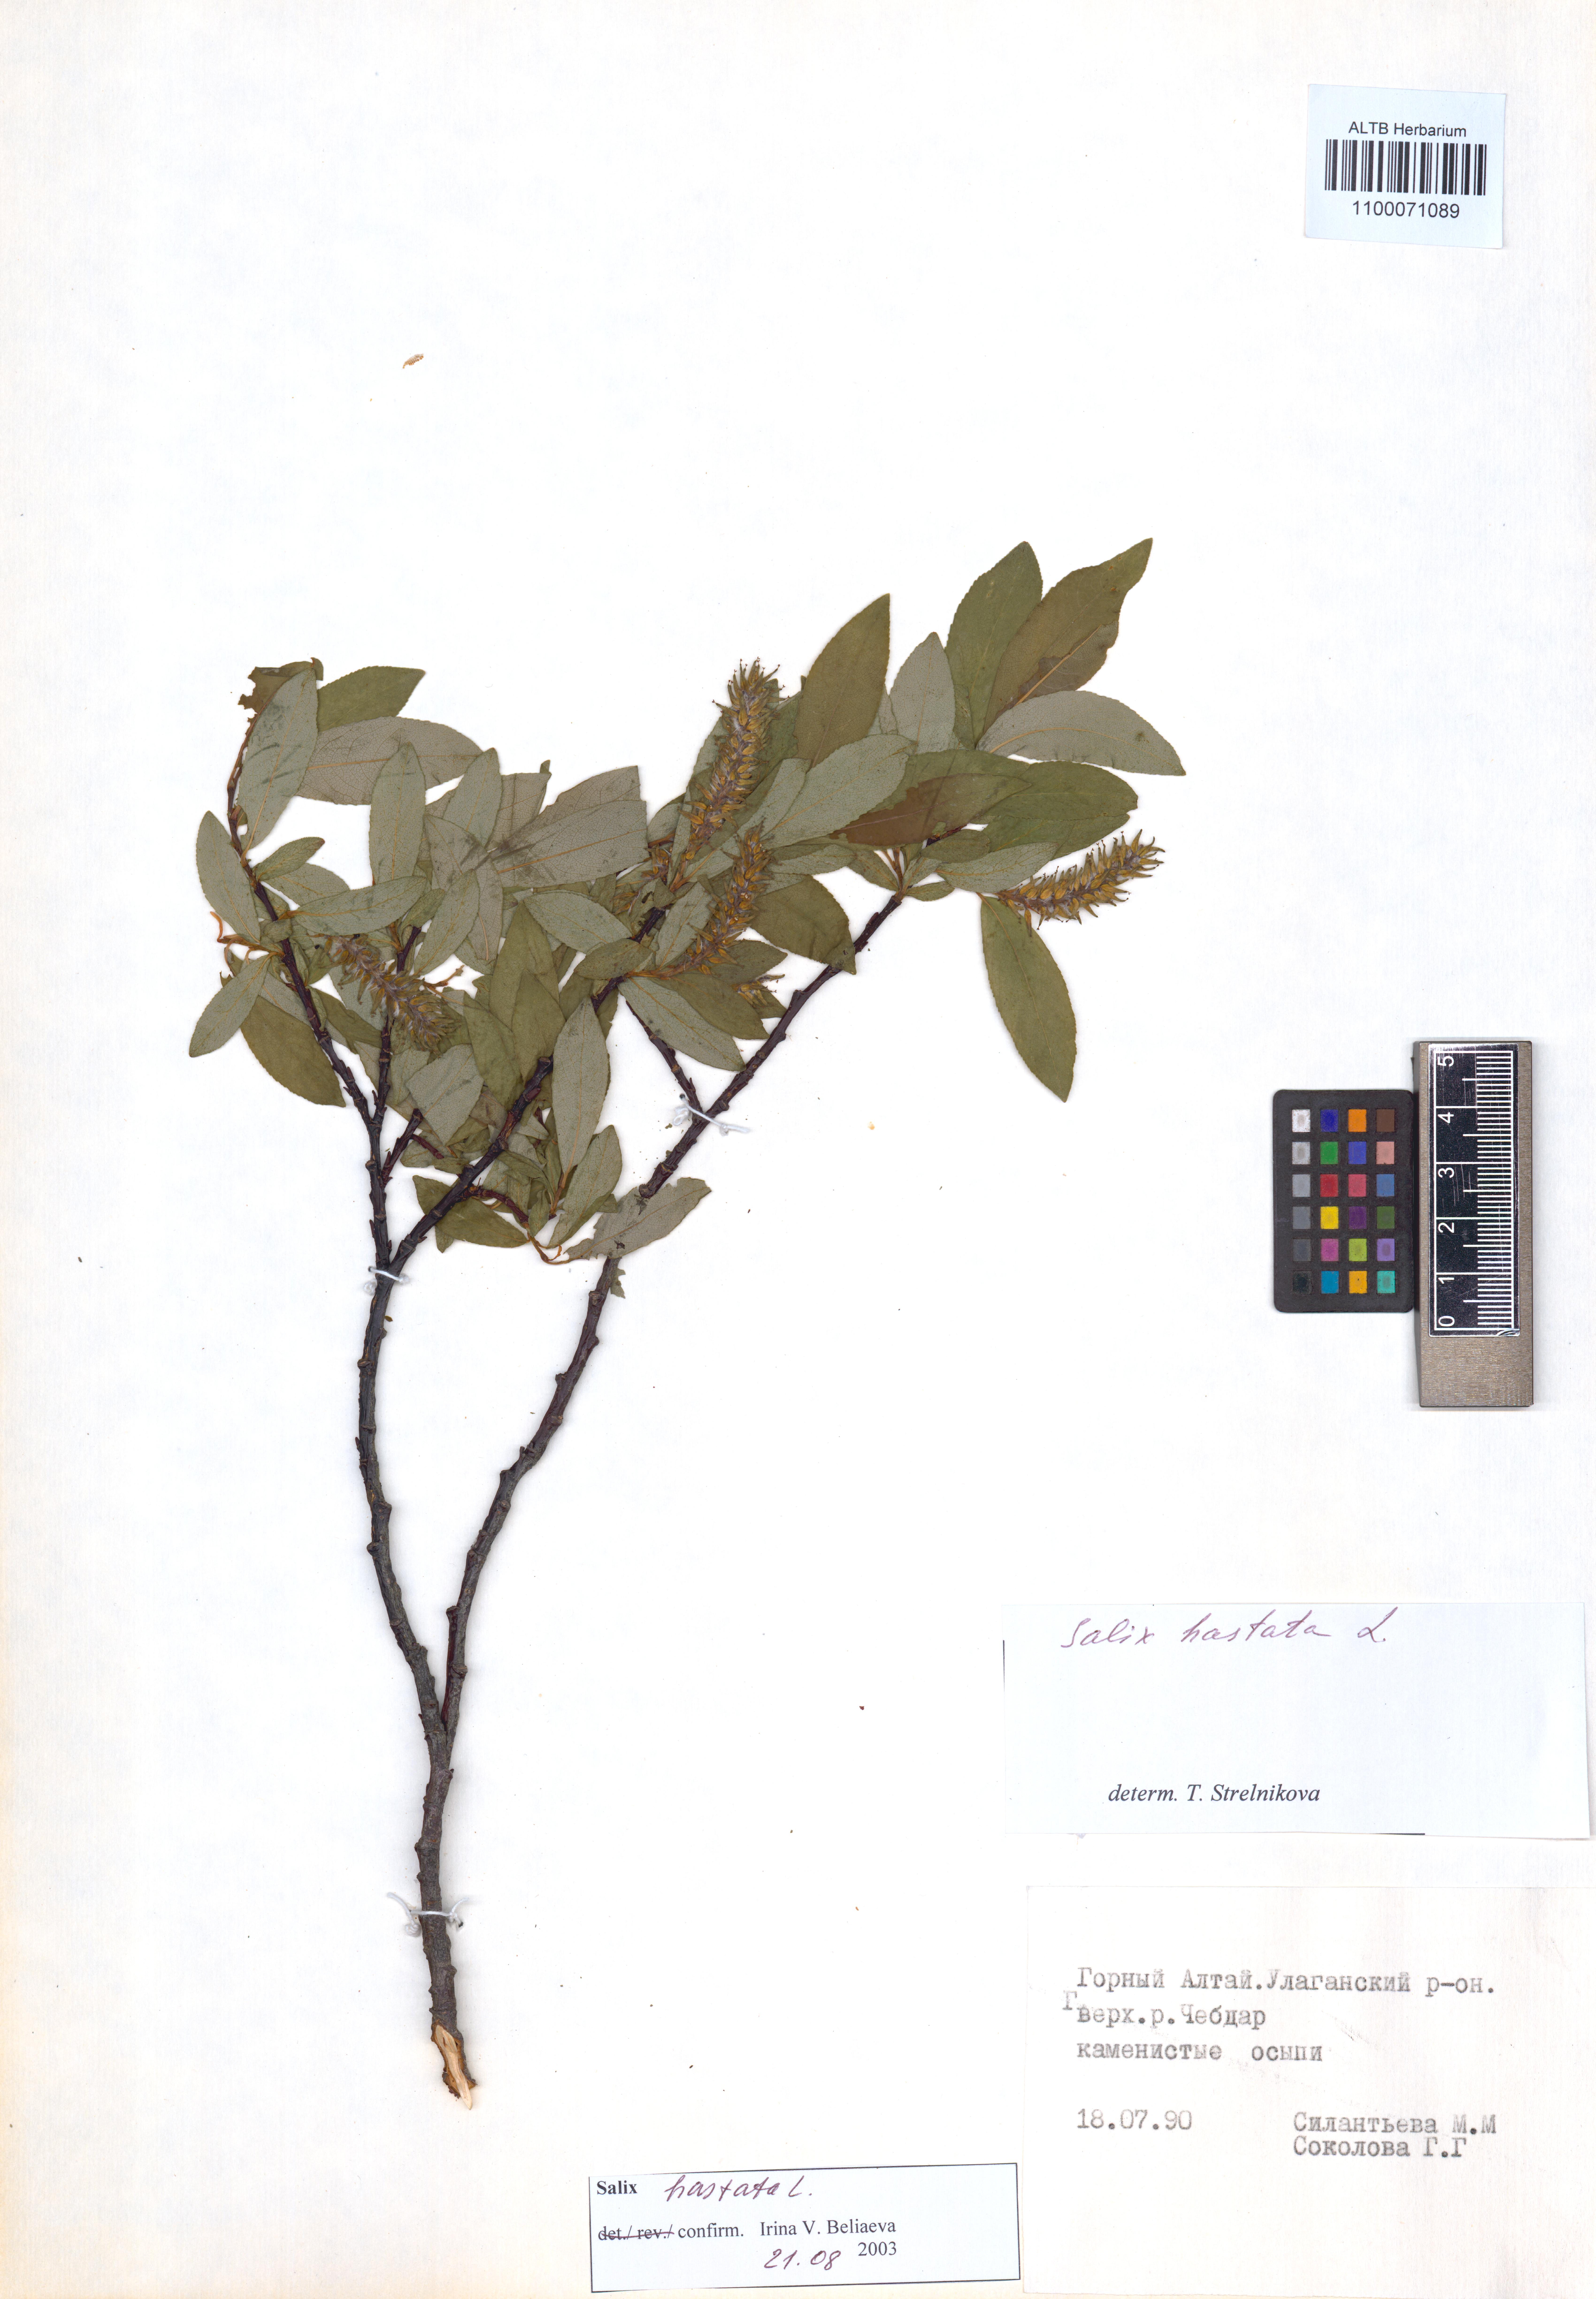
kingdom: Plantae
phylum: Tracheophyta
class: Magnoliopsida
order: Malpighiales
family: Salicaceae
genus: Salix
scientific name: Salix hastata
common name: Halberd willow
